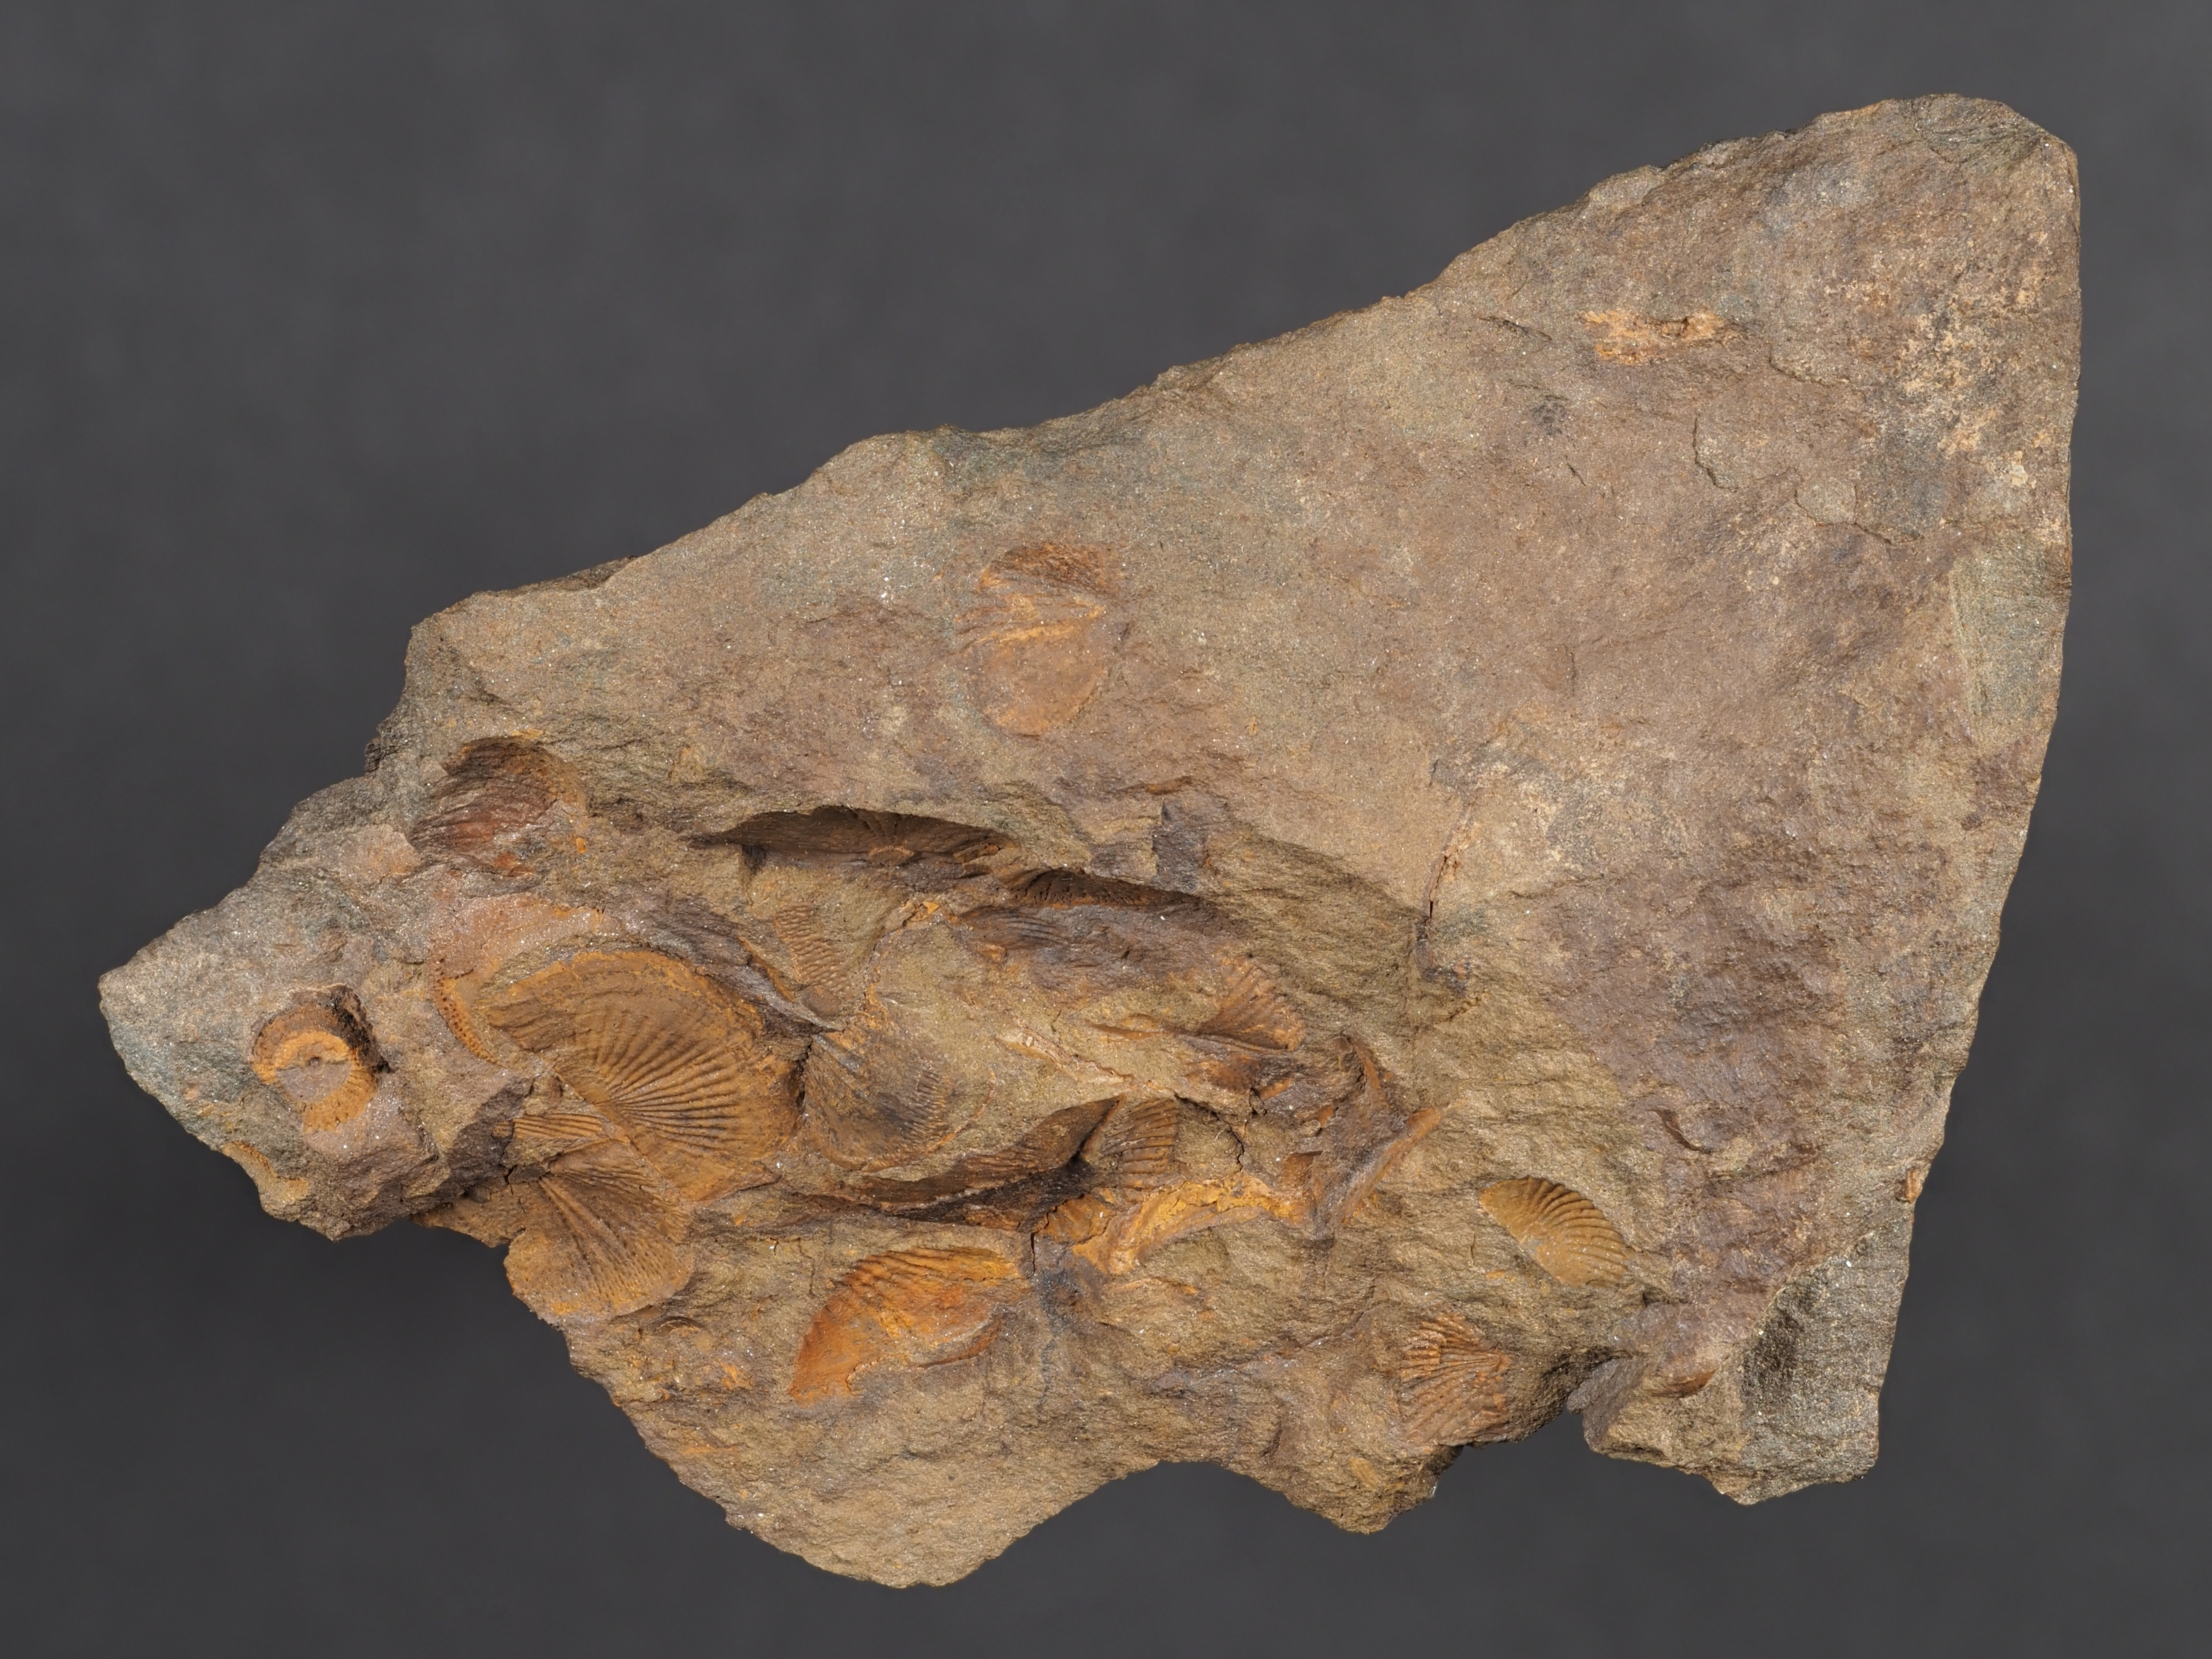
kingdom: Animalia
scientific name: Animalia
